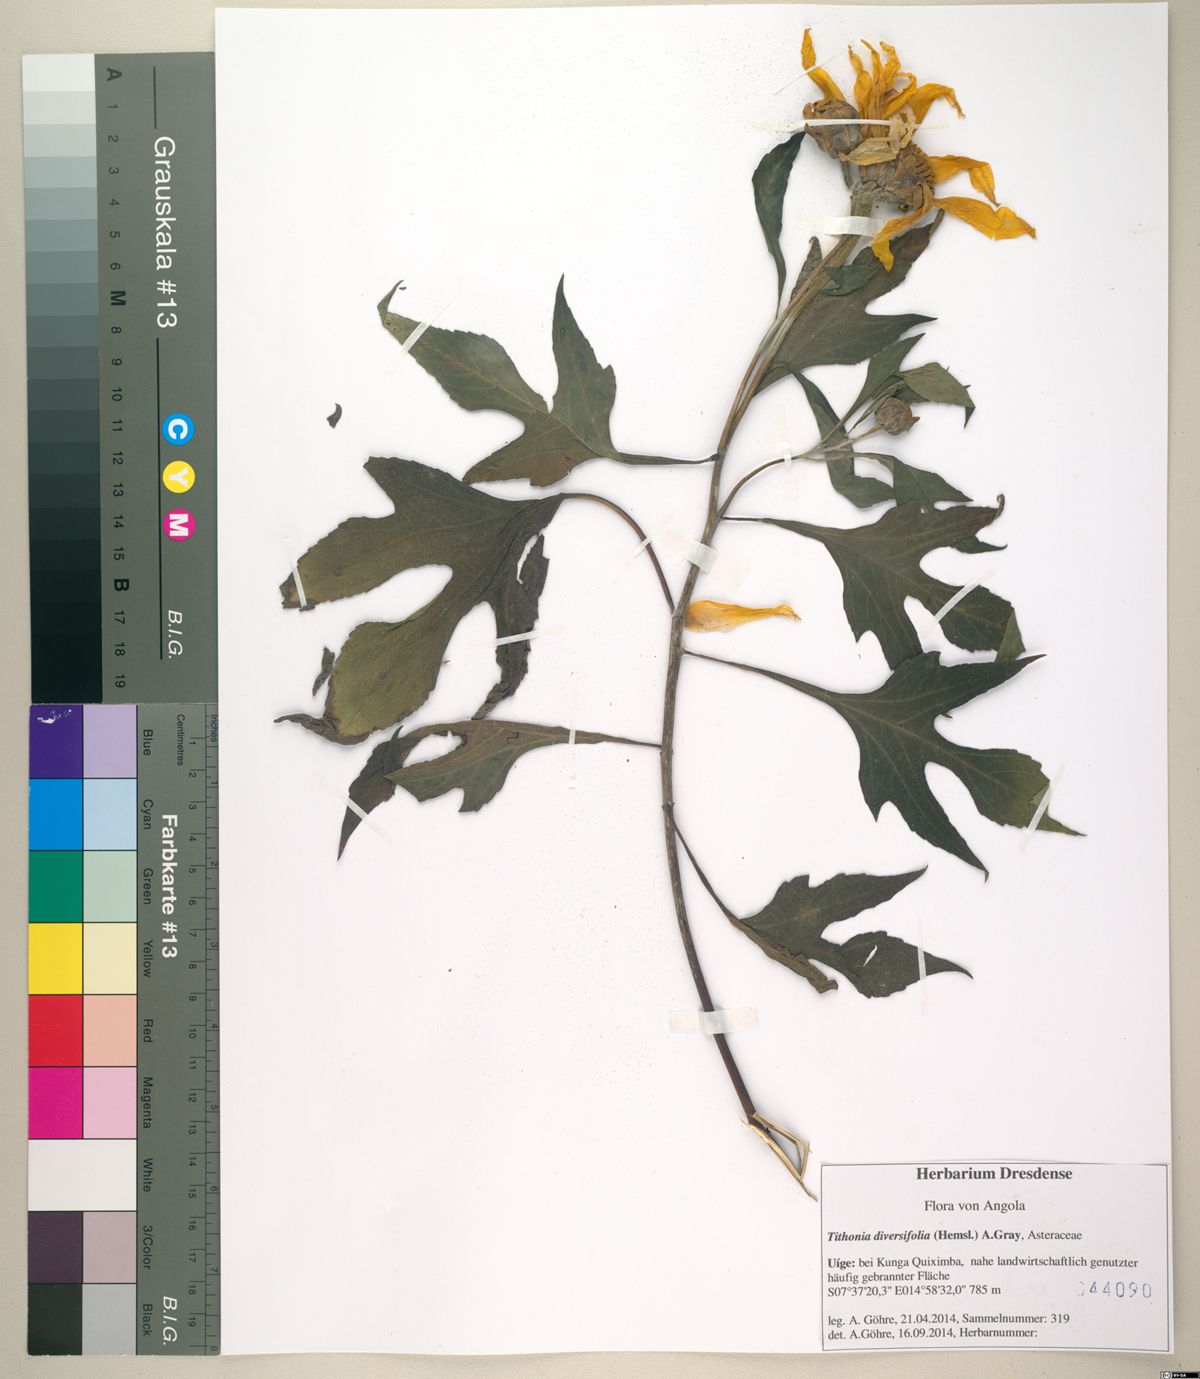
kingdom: Plantae
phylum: Tracheophyta
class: Magnoliopsida
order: Asterales
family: Asteraceae
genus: Tithonia
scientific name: Tithonia diversifolia
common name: Tree marigold
